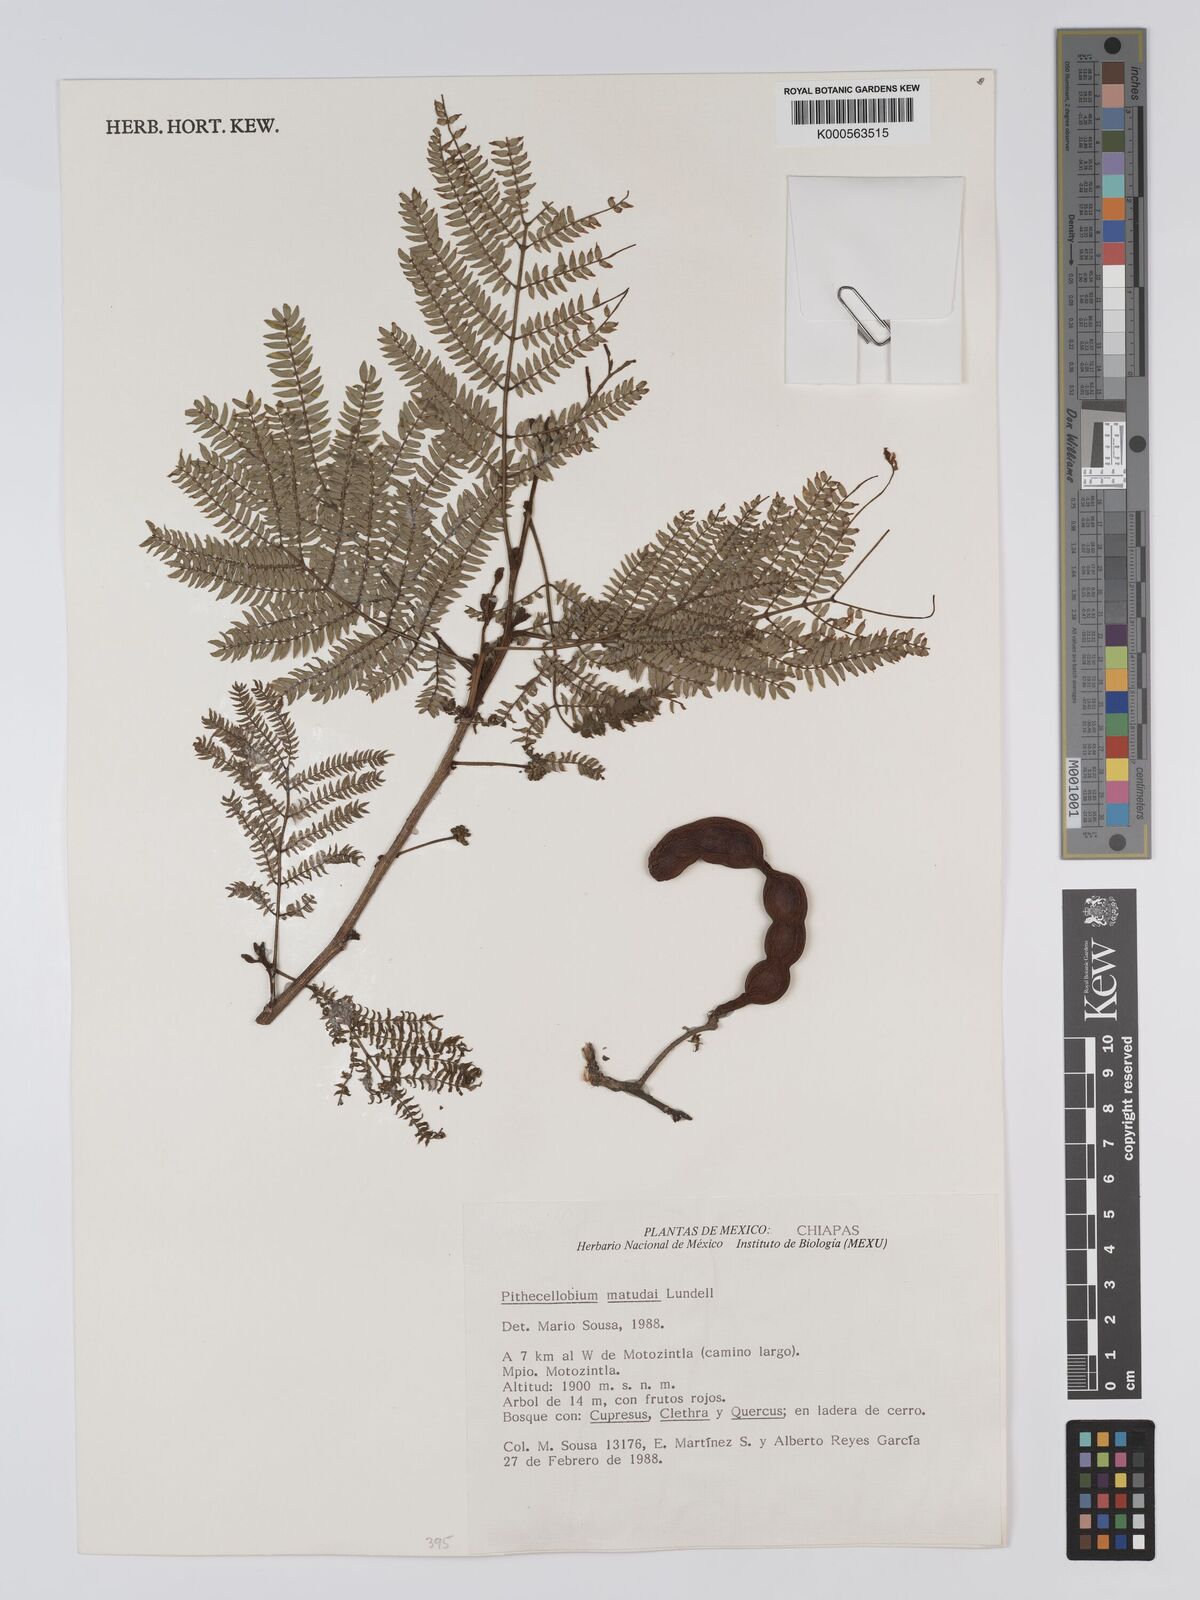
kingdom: Plantae
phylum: Tracheophyta
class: Magnoliopsida
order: Fabales
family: Fabaceae
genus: Cojoba
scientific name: Cojoba arborea
